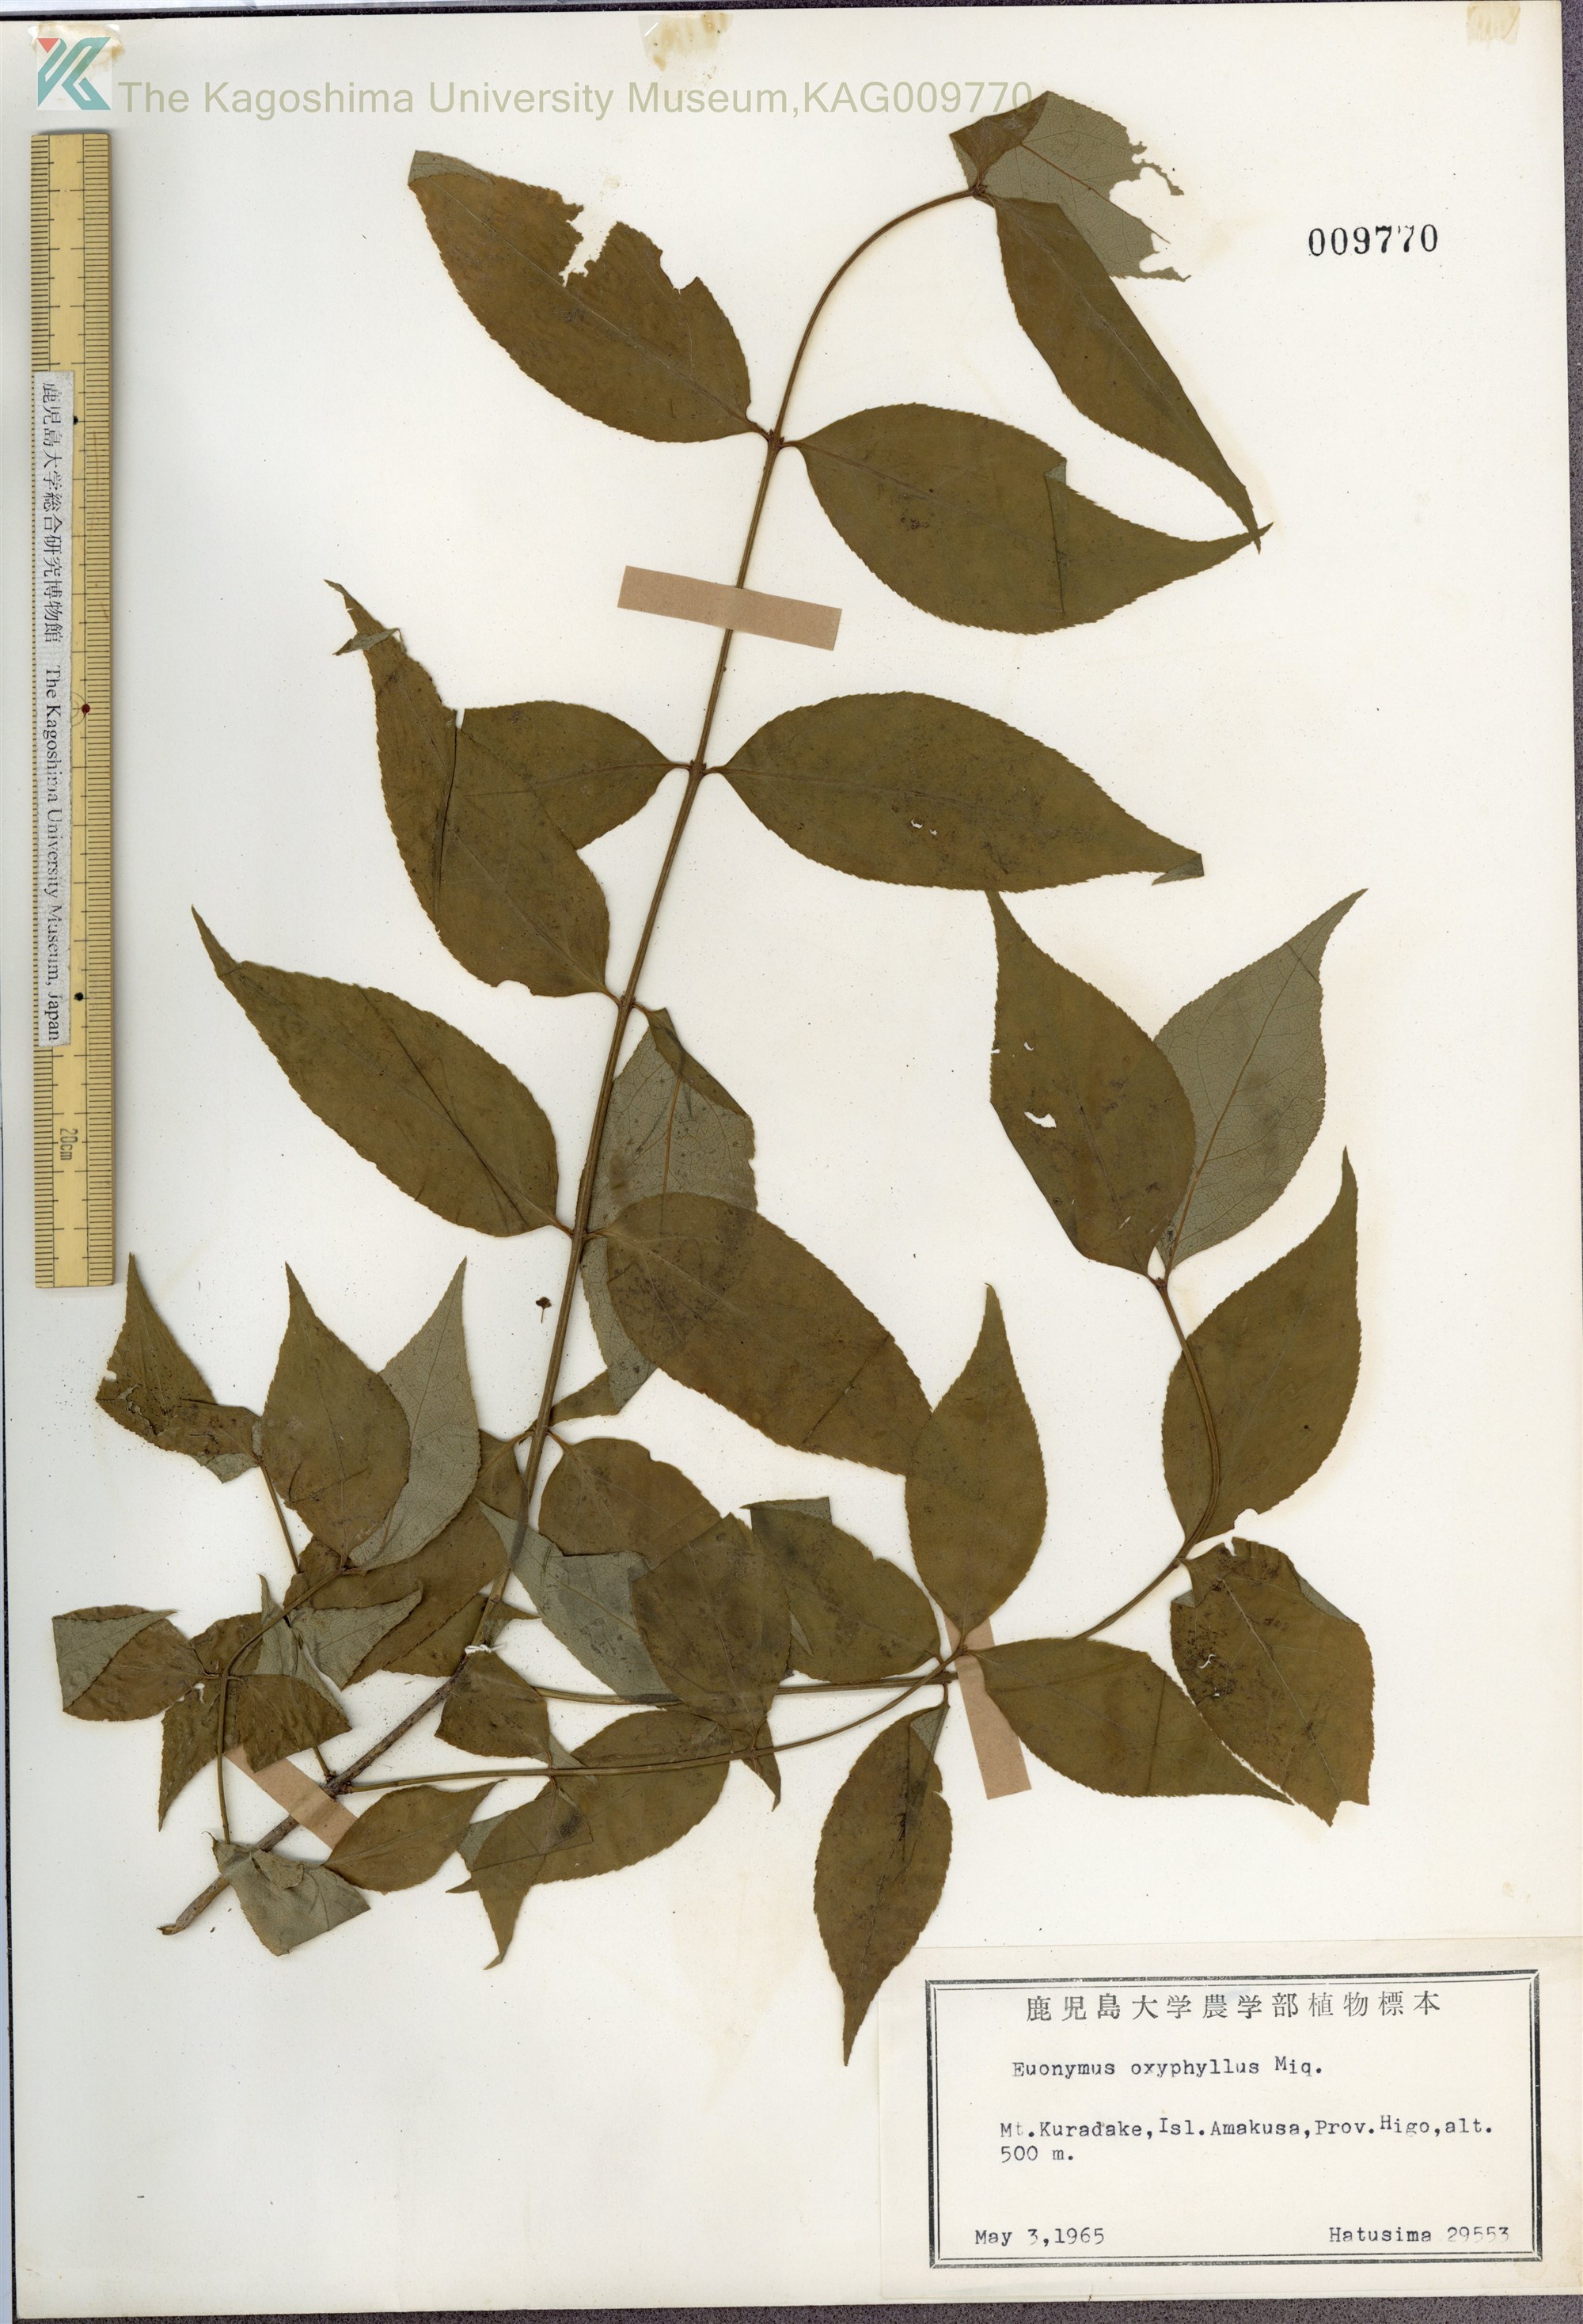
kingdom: Plantae
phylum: Tracheophyta
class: Magnoliopsida
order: Celastrales
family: Celastraceae
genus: Euonymus
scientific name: Euonymus oxyphyllus
